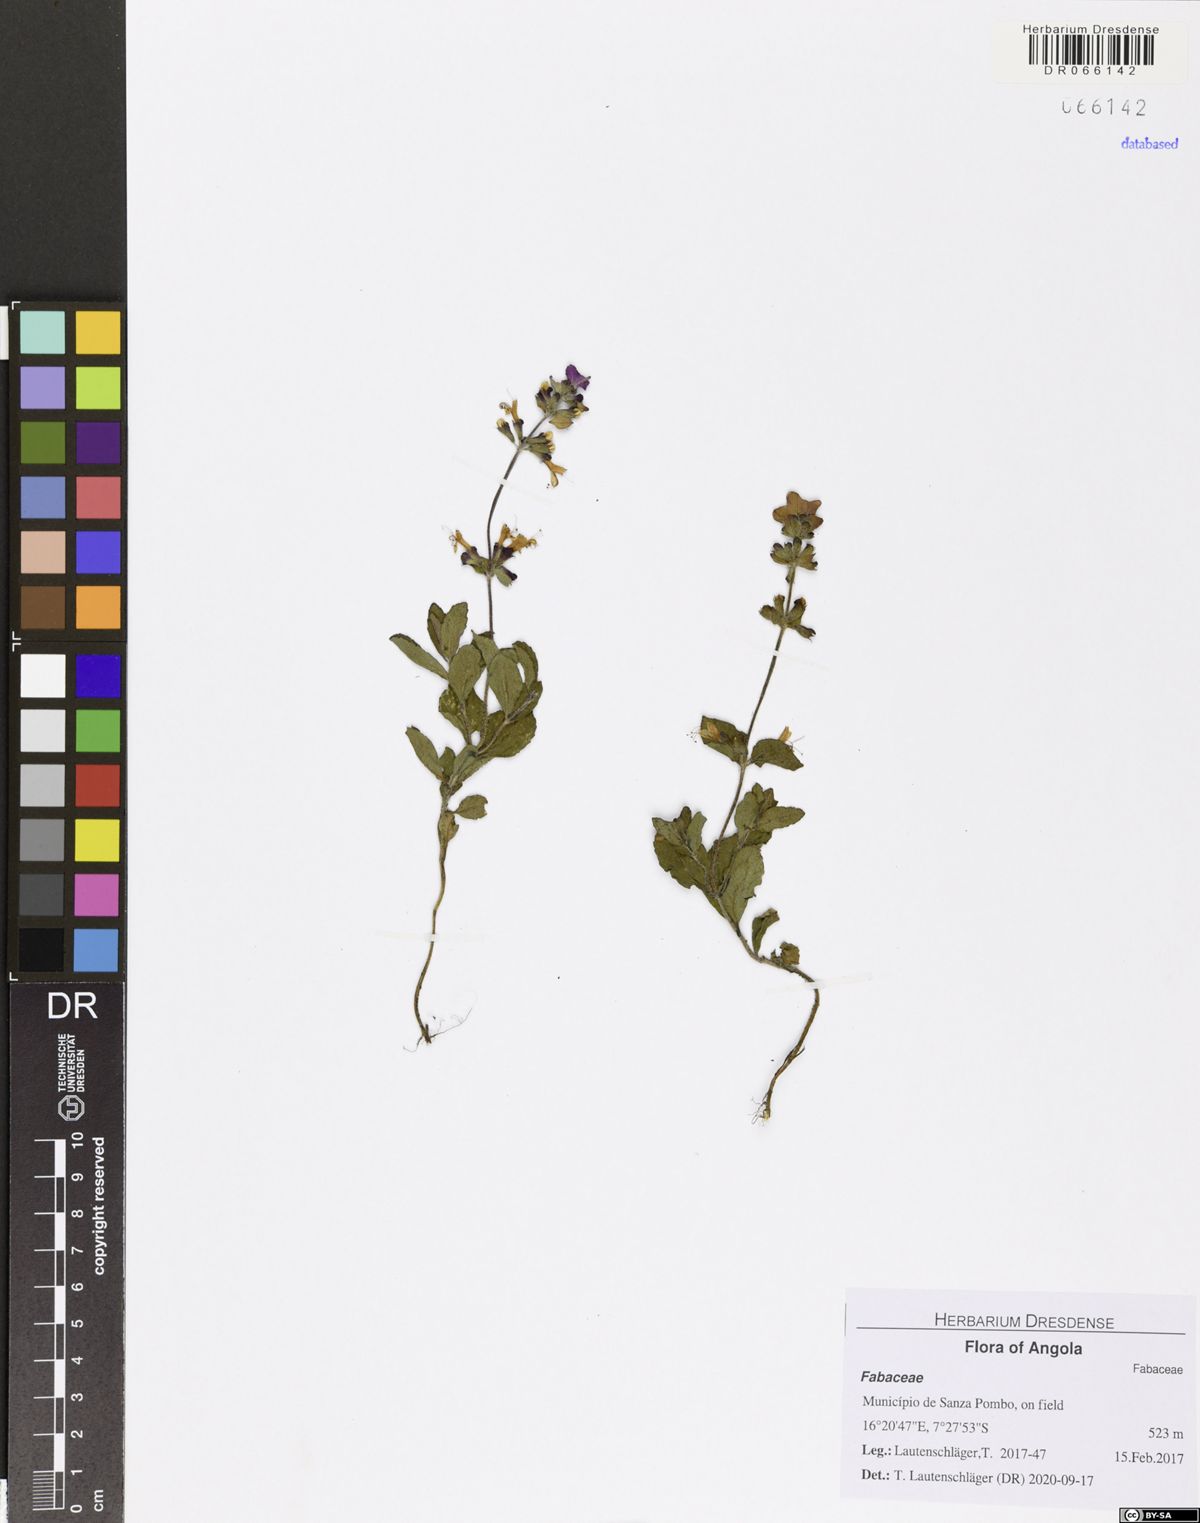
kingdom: Plantae
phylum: Tracheophyta
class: Magnoliopsida
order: Fabales
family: Fabaceae
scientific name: Fabaceae
